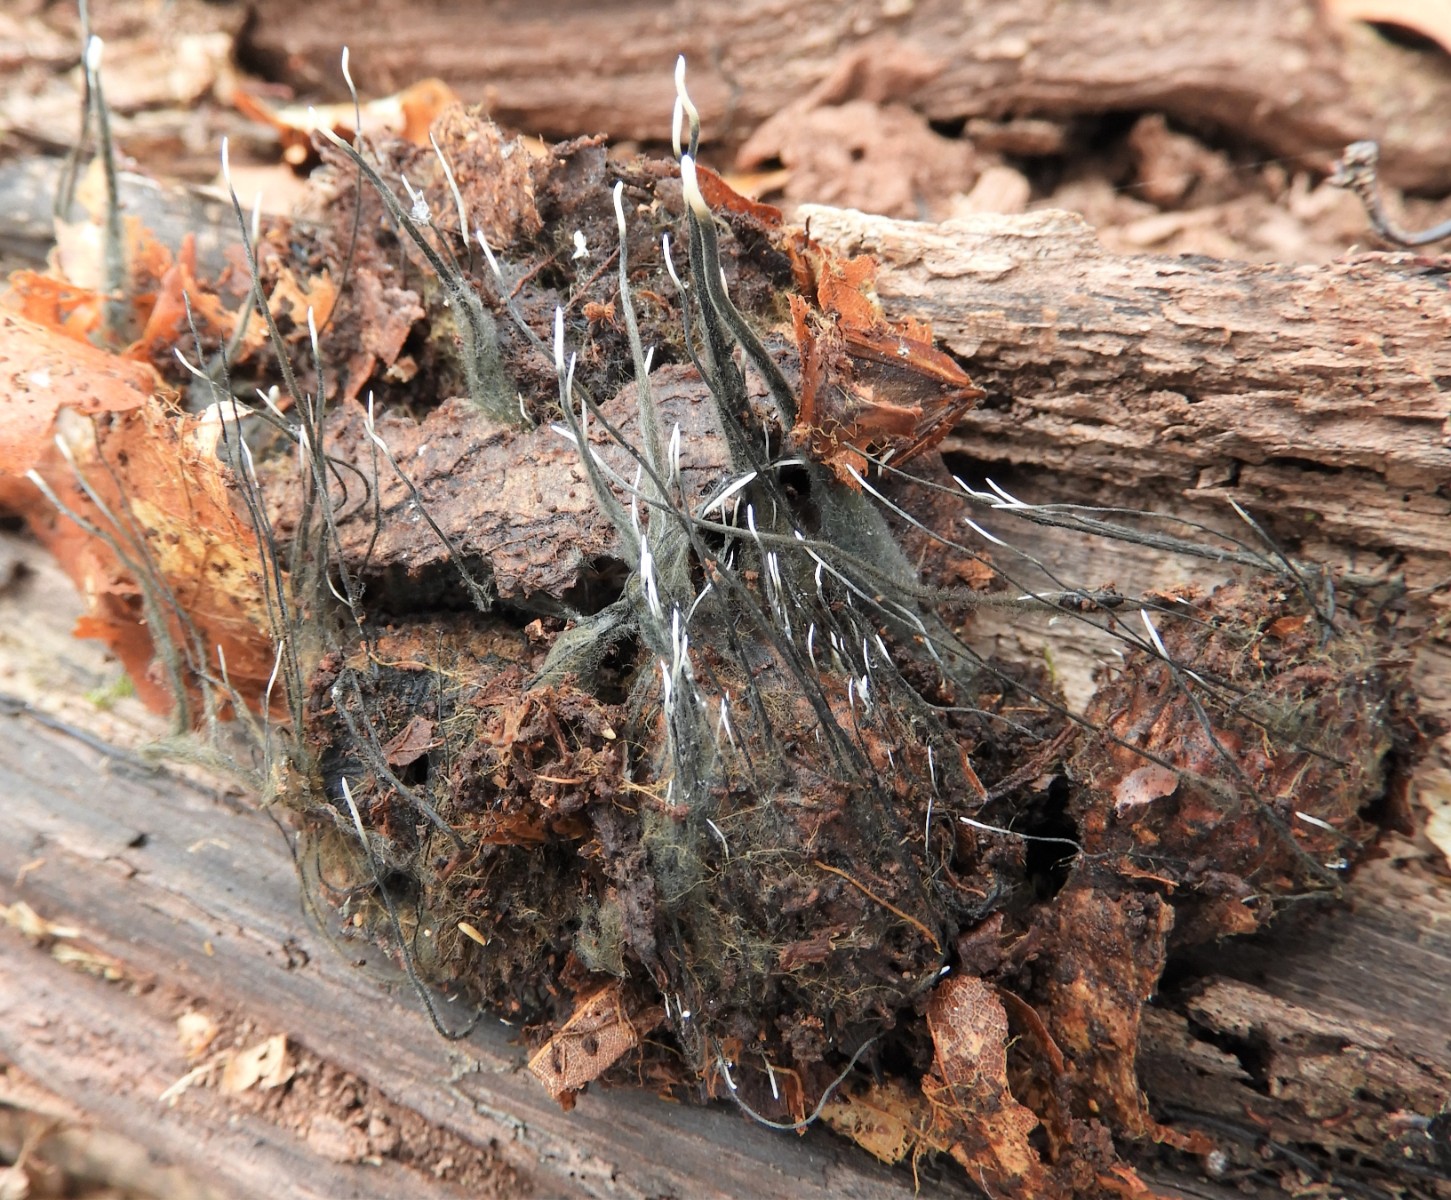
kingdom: Fungi
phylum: Ascomycota
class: Sordariomycetes
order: Xylariales
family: Xylariaceae
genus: Xylaria
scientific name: Xylaria carpophila
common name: bogskål-stødsvamp
